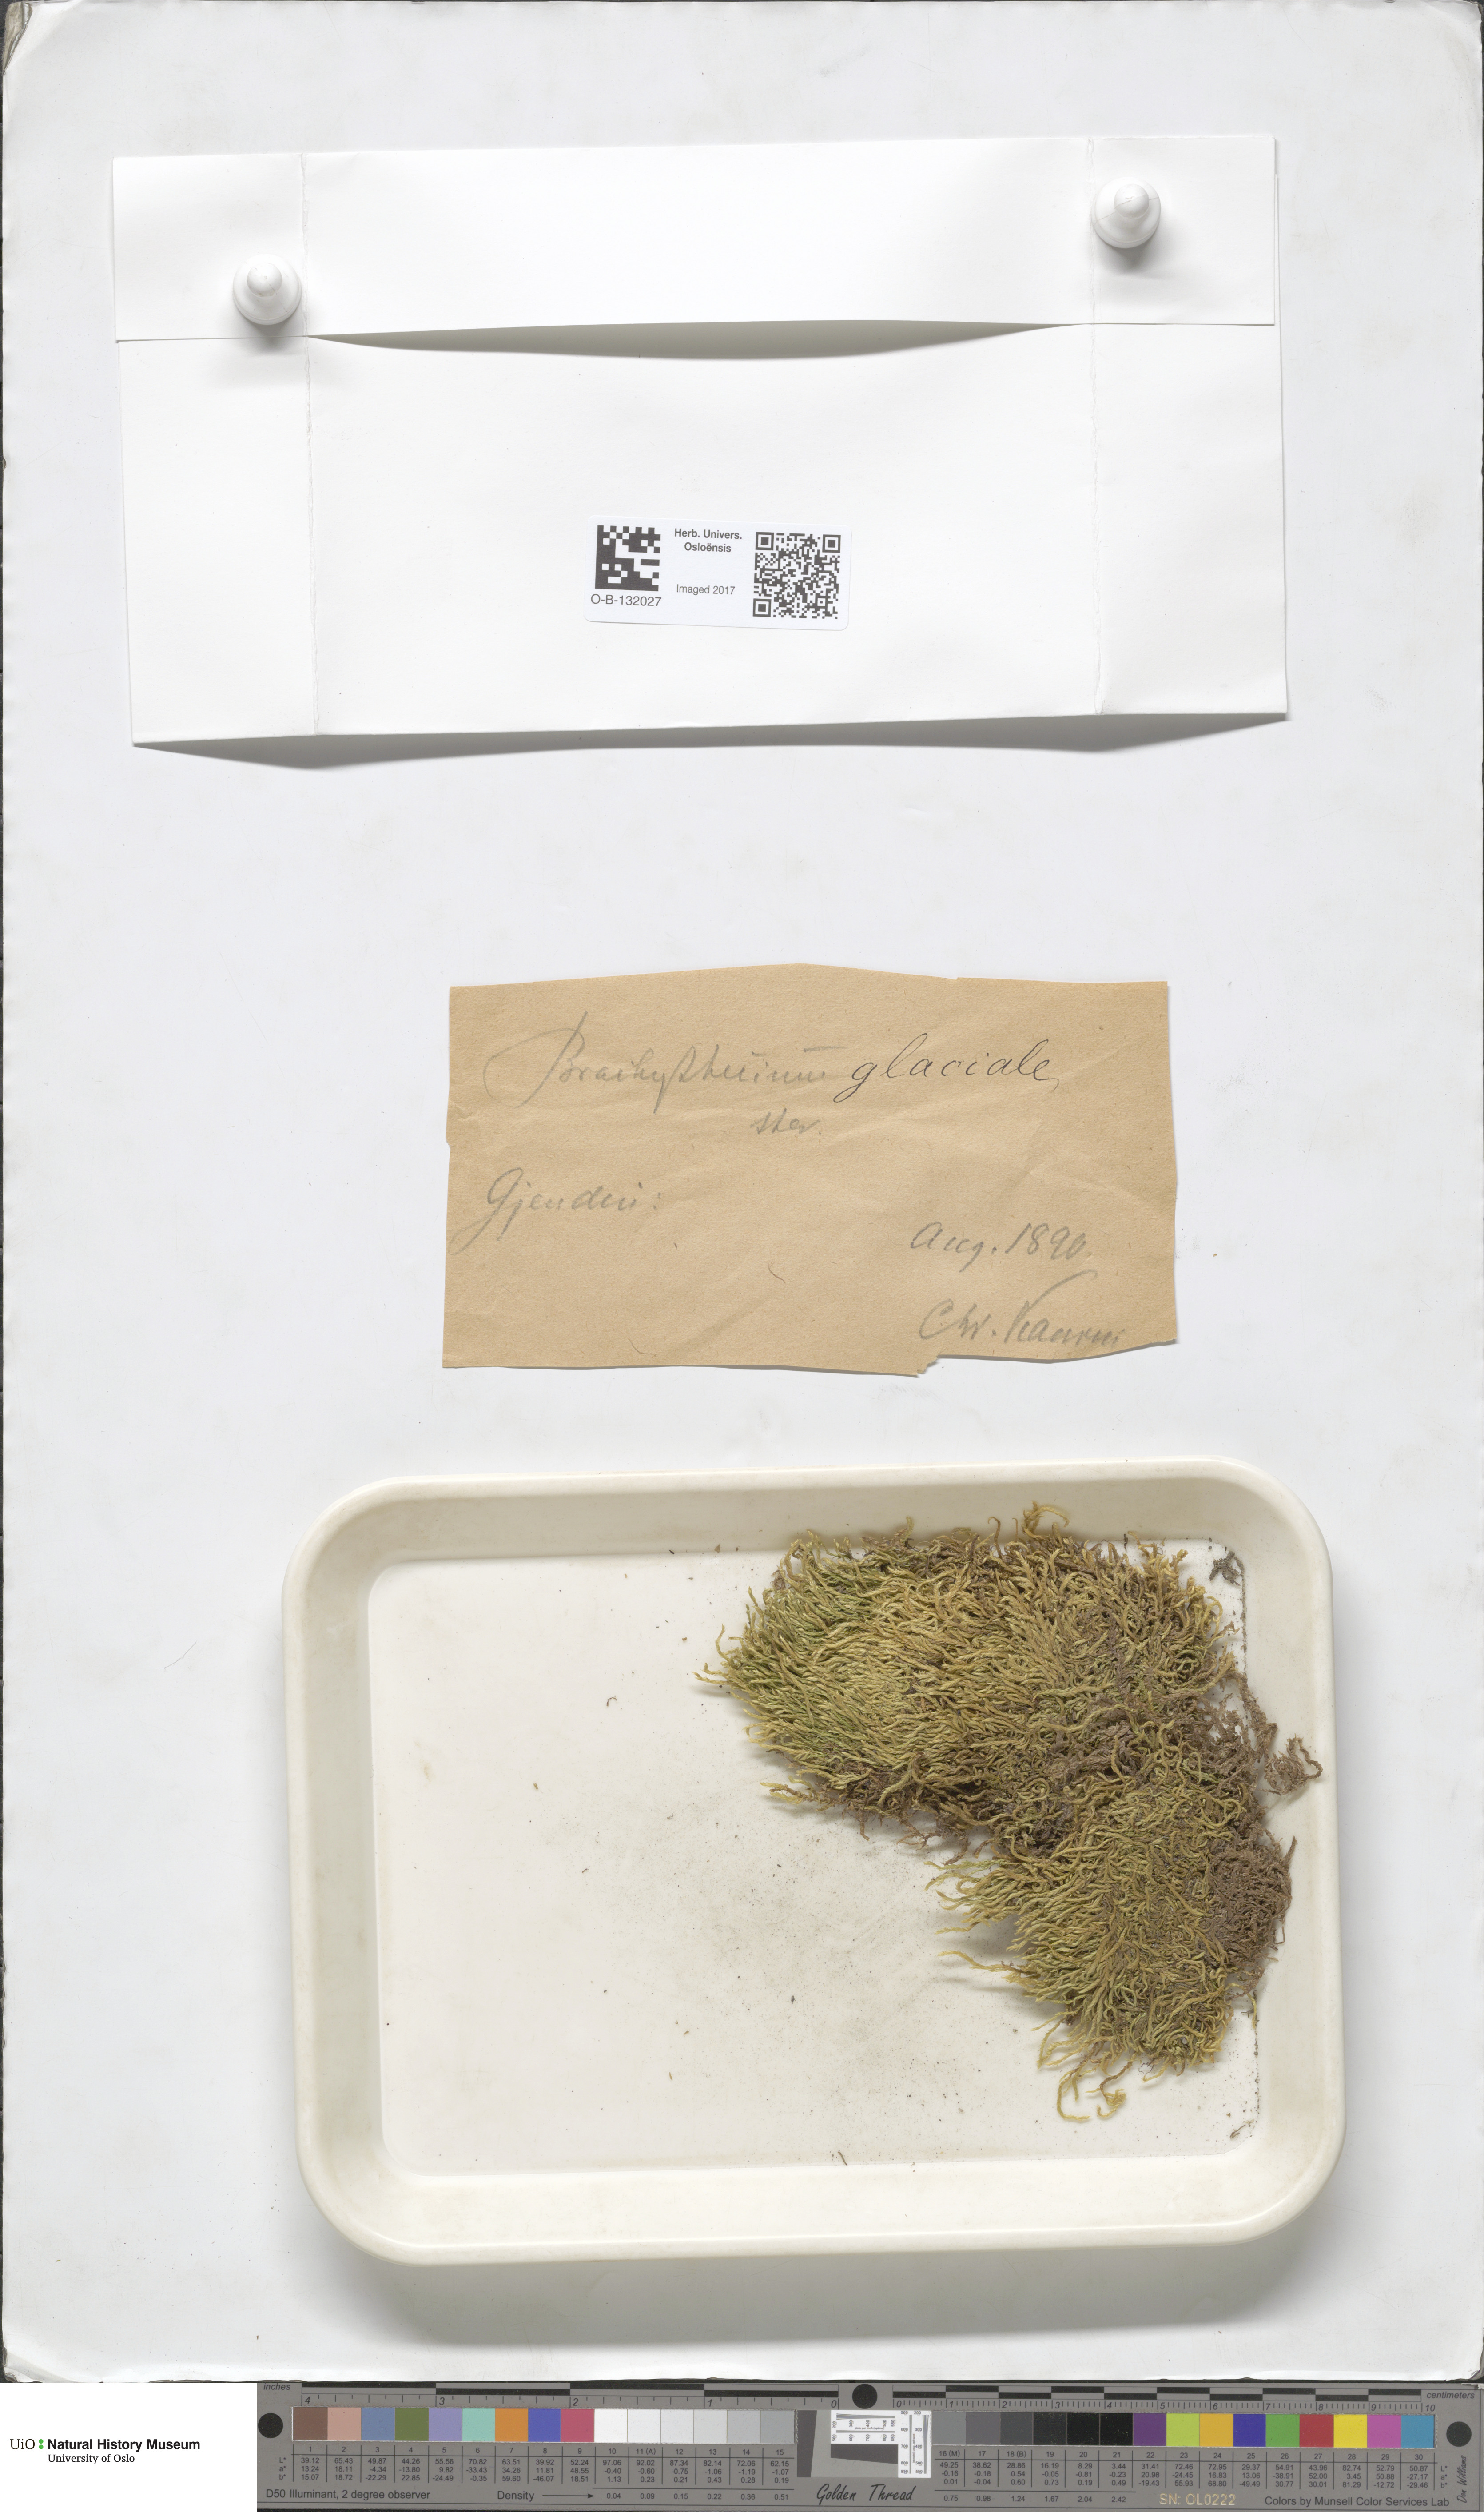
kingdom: Plantae
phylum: Bryophyta
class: Bryopsida
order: Hypnales
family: Brachytheciaceae
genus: Brachythecium
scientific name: Brachythecium erythrorrhizon
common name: Taiga ragged moss
